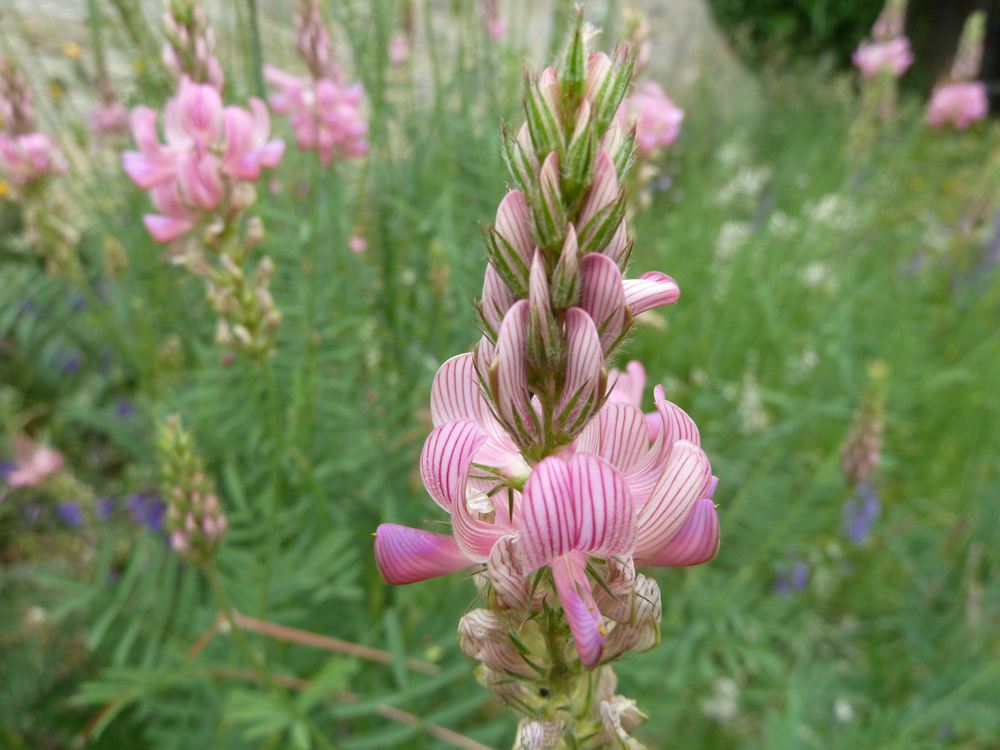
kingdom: Plantae
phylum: Tracheophyta
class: Magnoliopsida
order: Fabales
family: Fabaceae
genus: Onobrychis
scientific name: Onobrychis viciifolia
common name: Sainfoin
